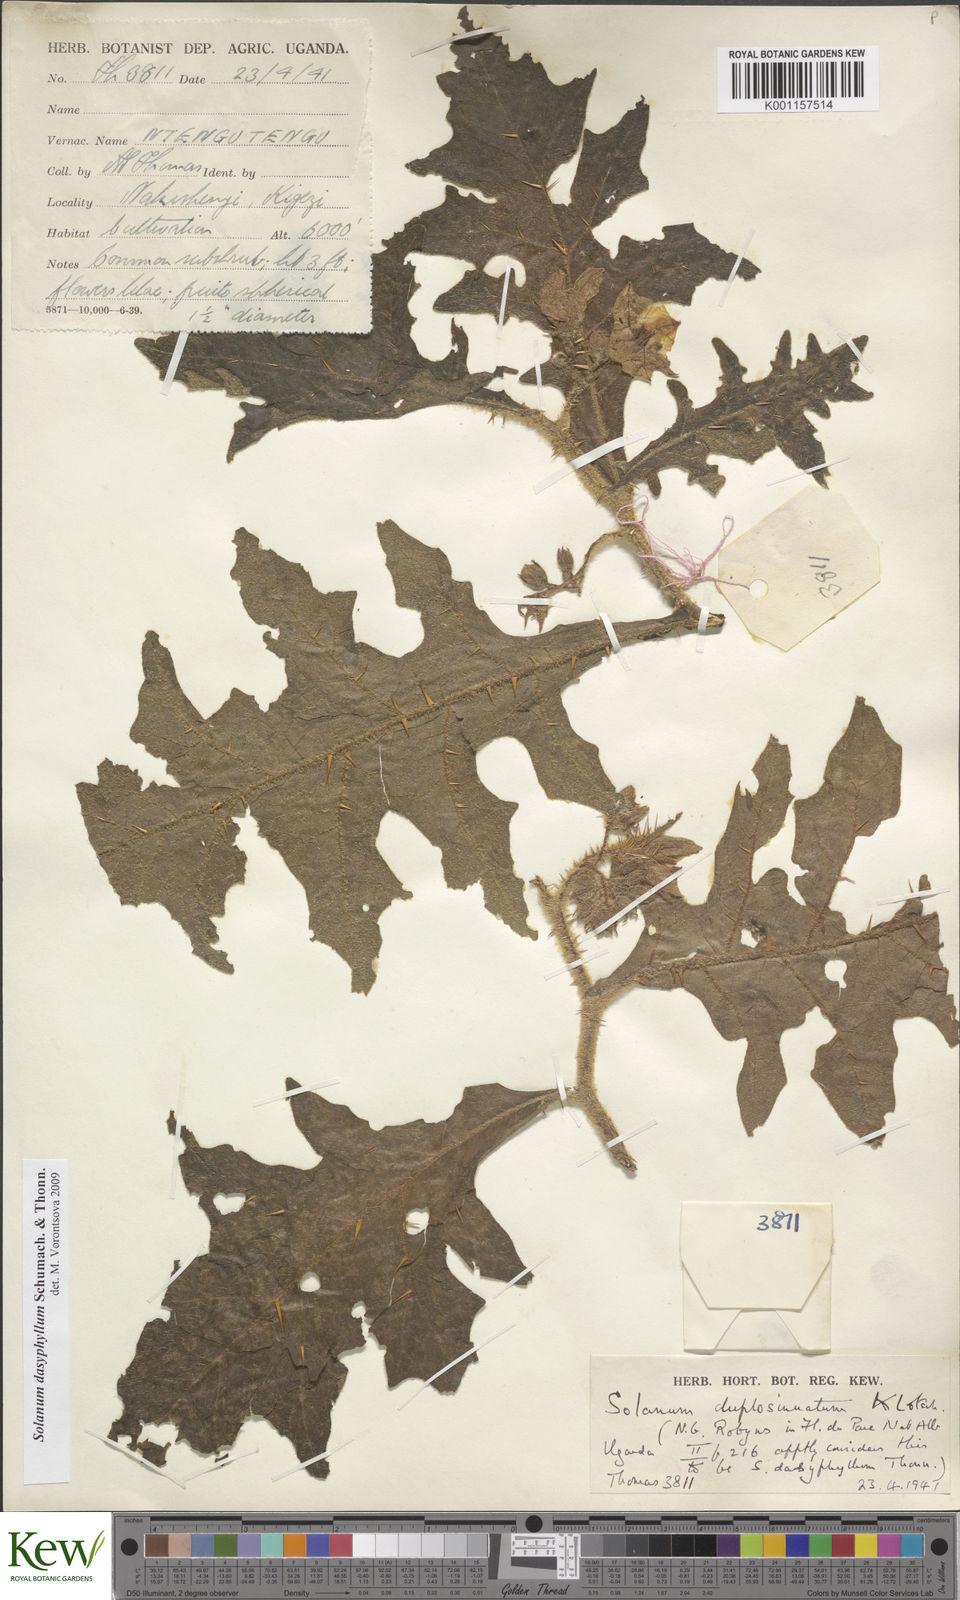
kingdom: Plantae
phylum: Tracheophyta
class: Magnoliopsida
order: Solanales
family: Solanaceae
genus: Solanum
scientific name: Solanum dasyphyllum
